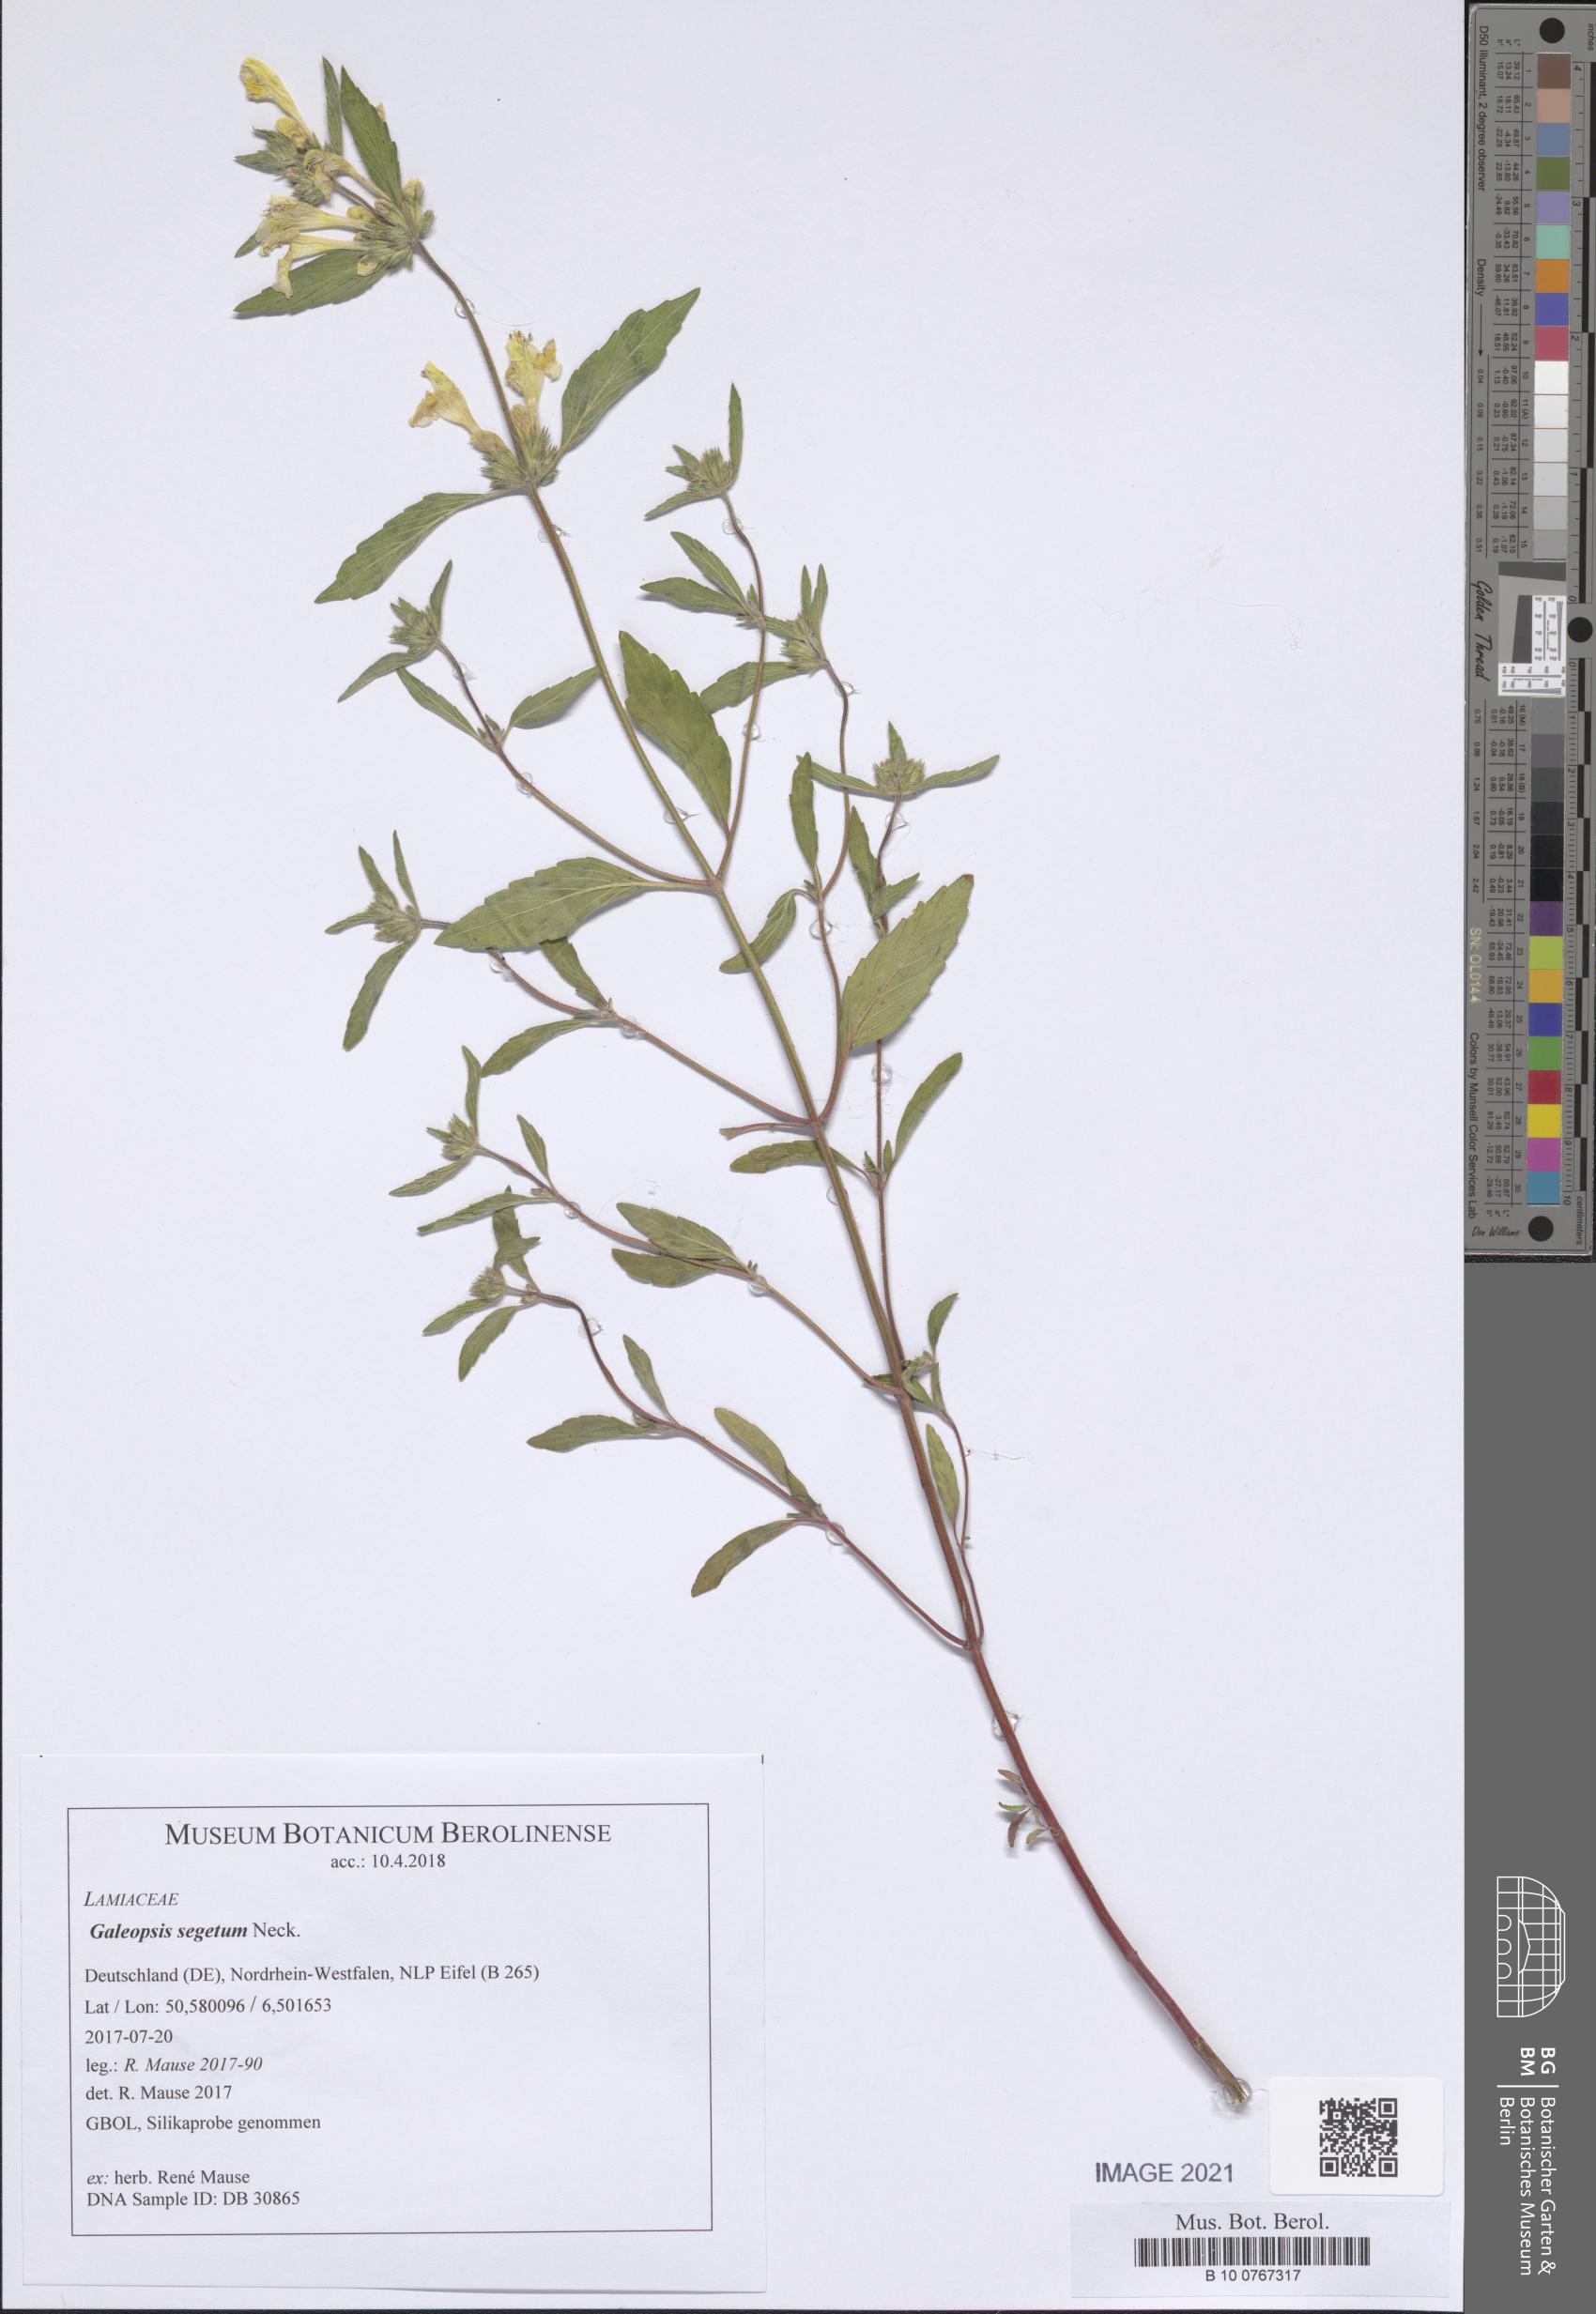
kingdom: Plantae
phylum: Tracheophyta
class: Magnoliopsida
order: Lamiales
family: Lamiaceae
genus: Galeopsis
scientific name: Galeopsis segetum
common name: Downy hemp-nettle
